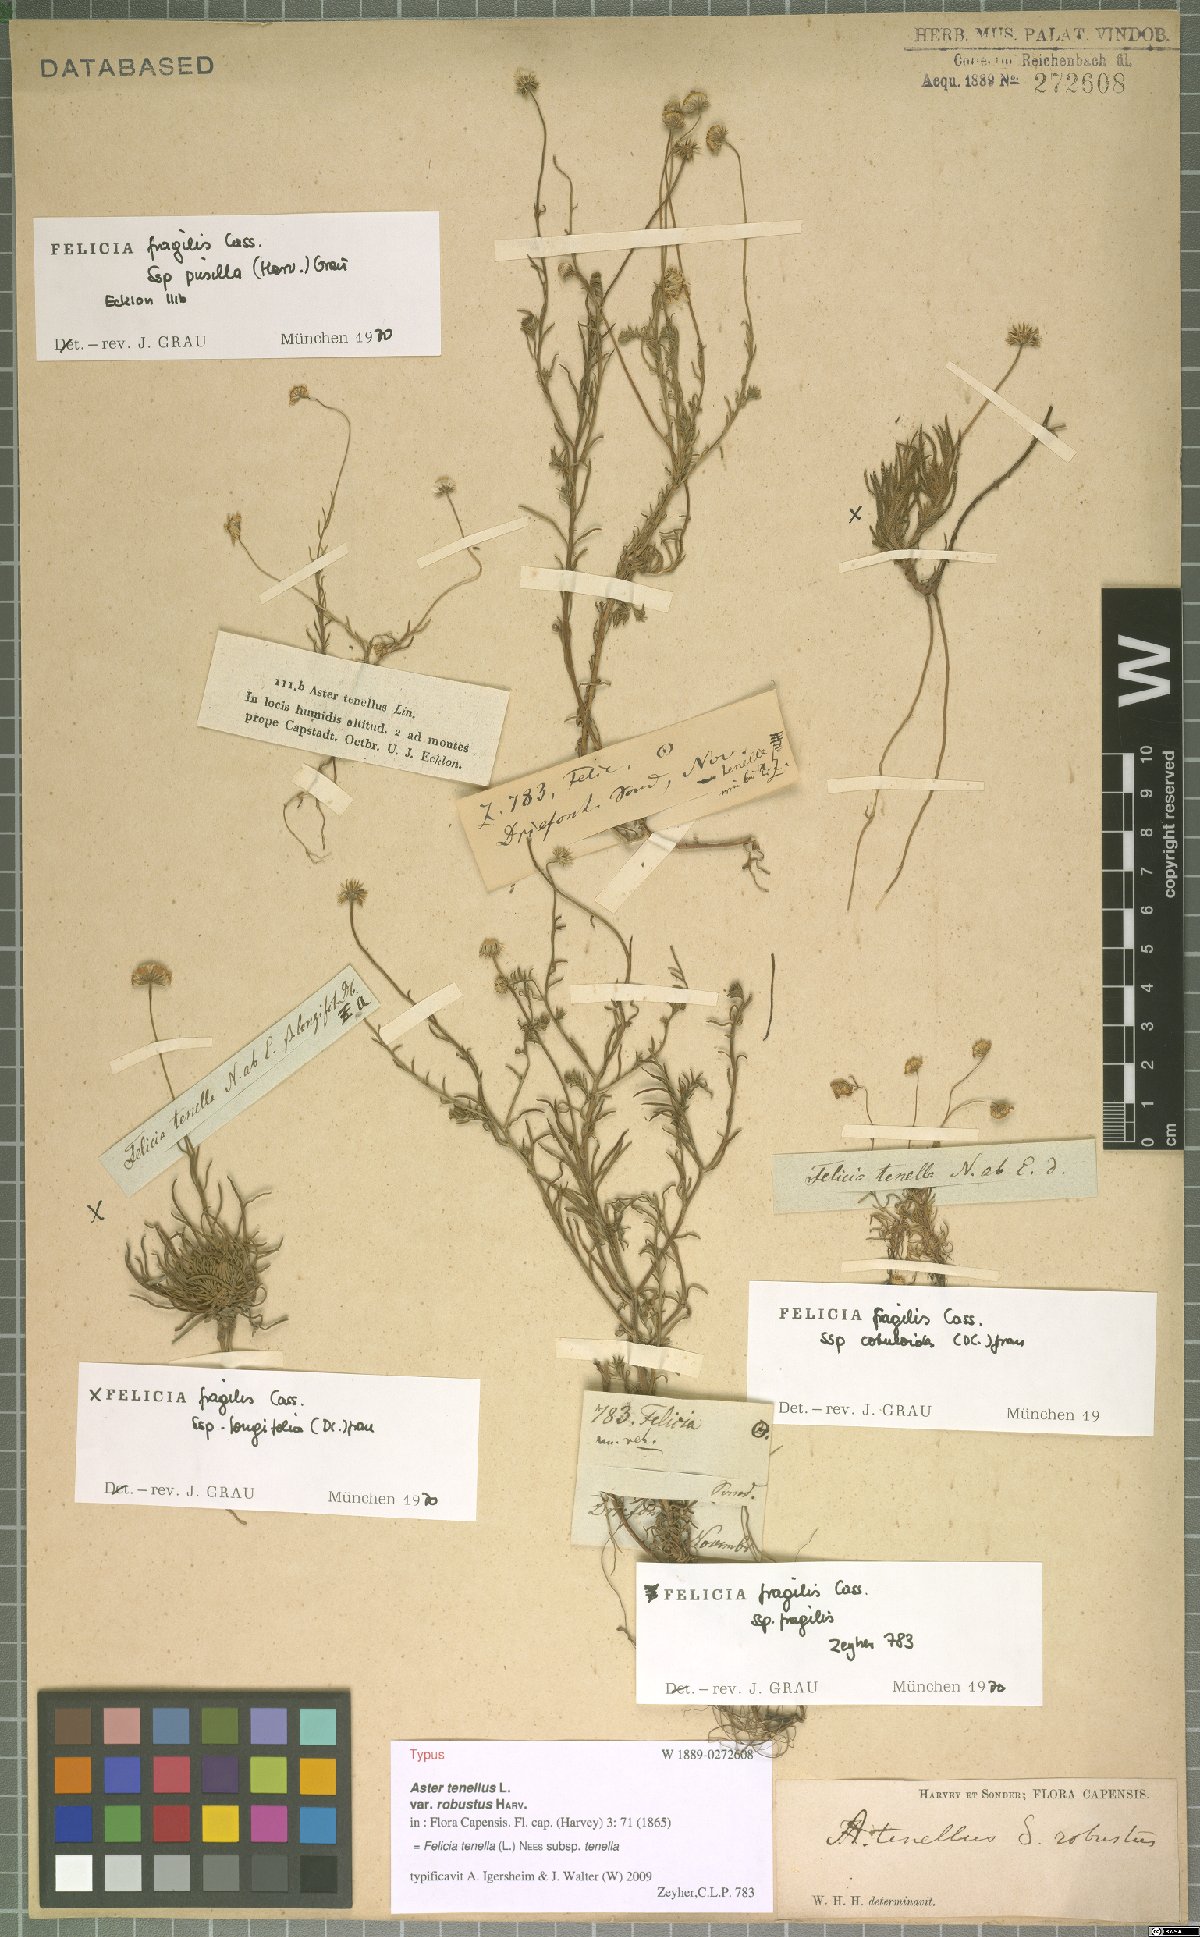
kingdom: Plantae
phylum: Tracheophyta
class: Magnoliopsida
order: Asterales
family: Asteraceae
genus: Felicia
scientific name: Felicia tenella
